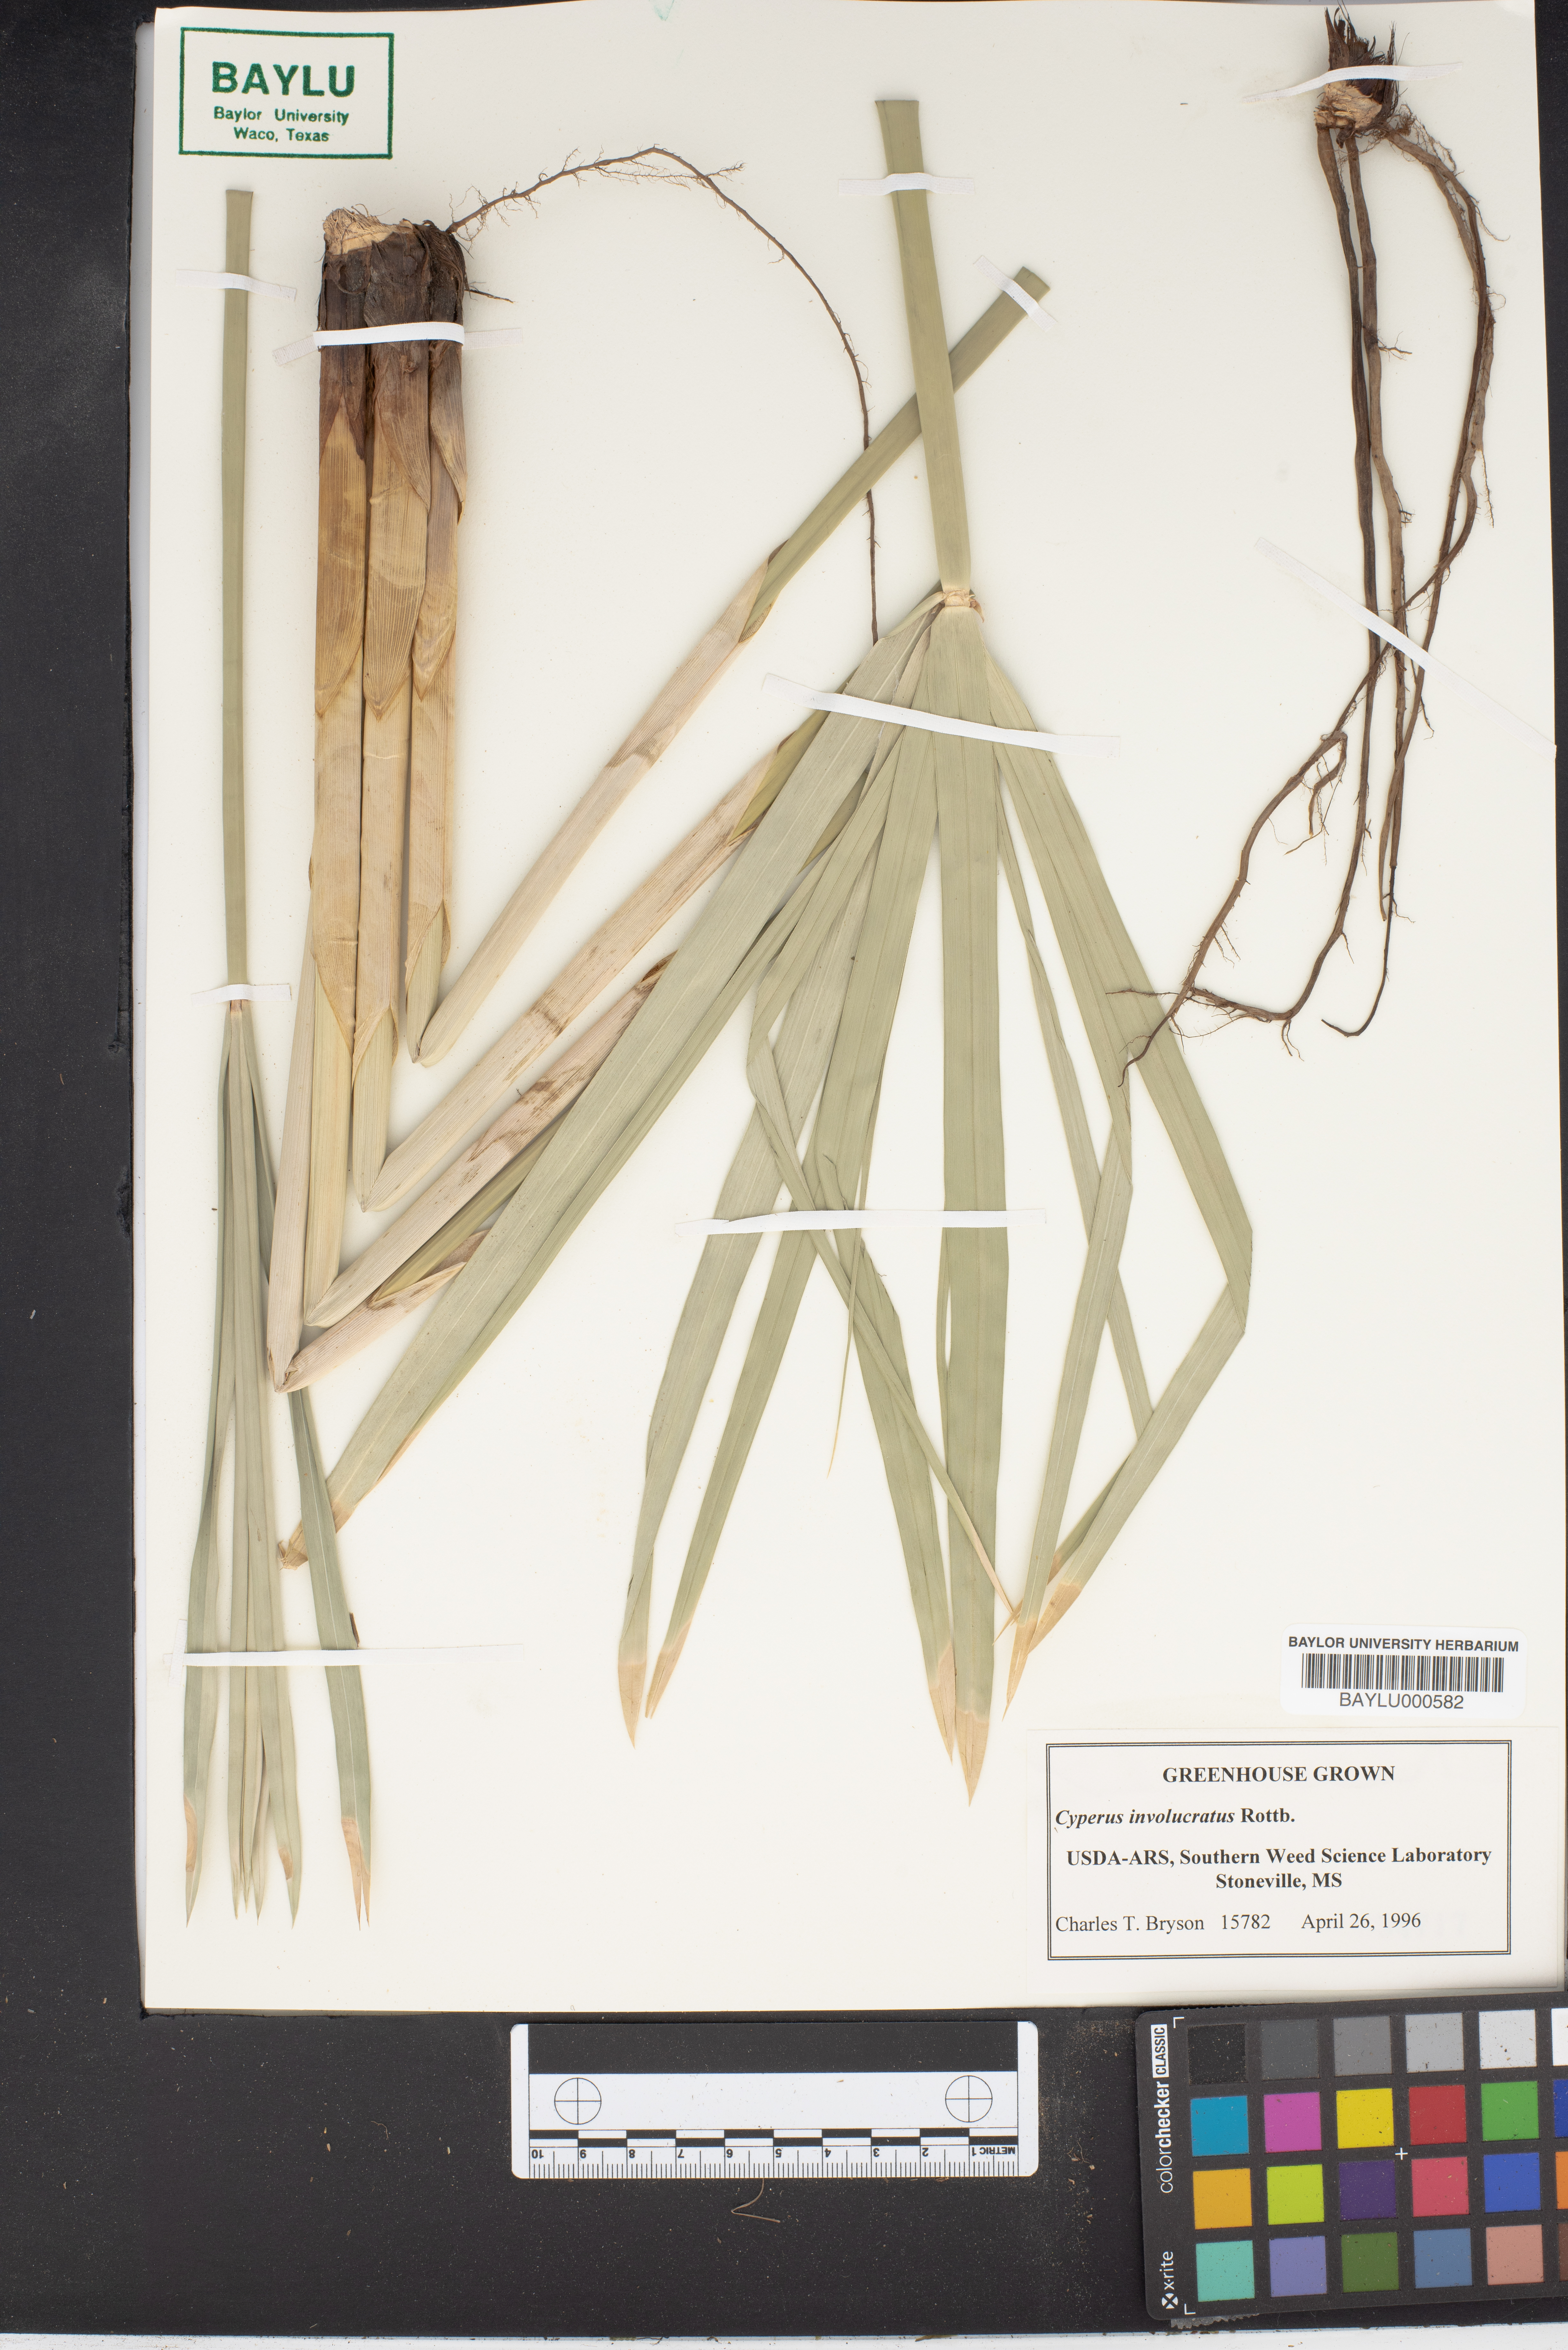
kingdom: Plantae
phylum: Tracheophyta
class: Liliopsida
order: Poales
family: Cyperaceae
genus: Cyperus
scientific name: Cyperus alternifolius
